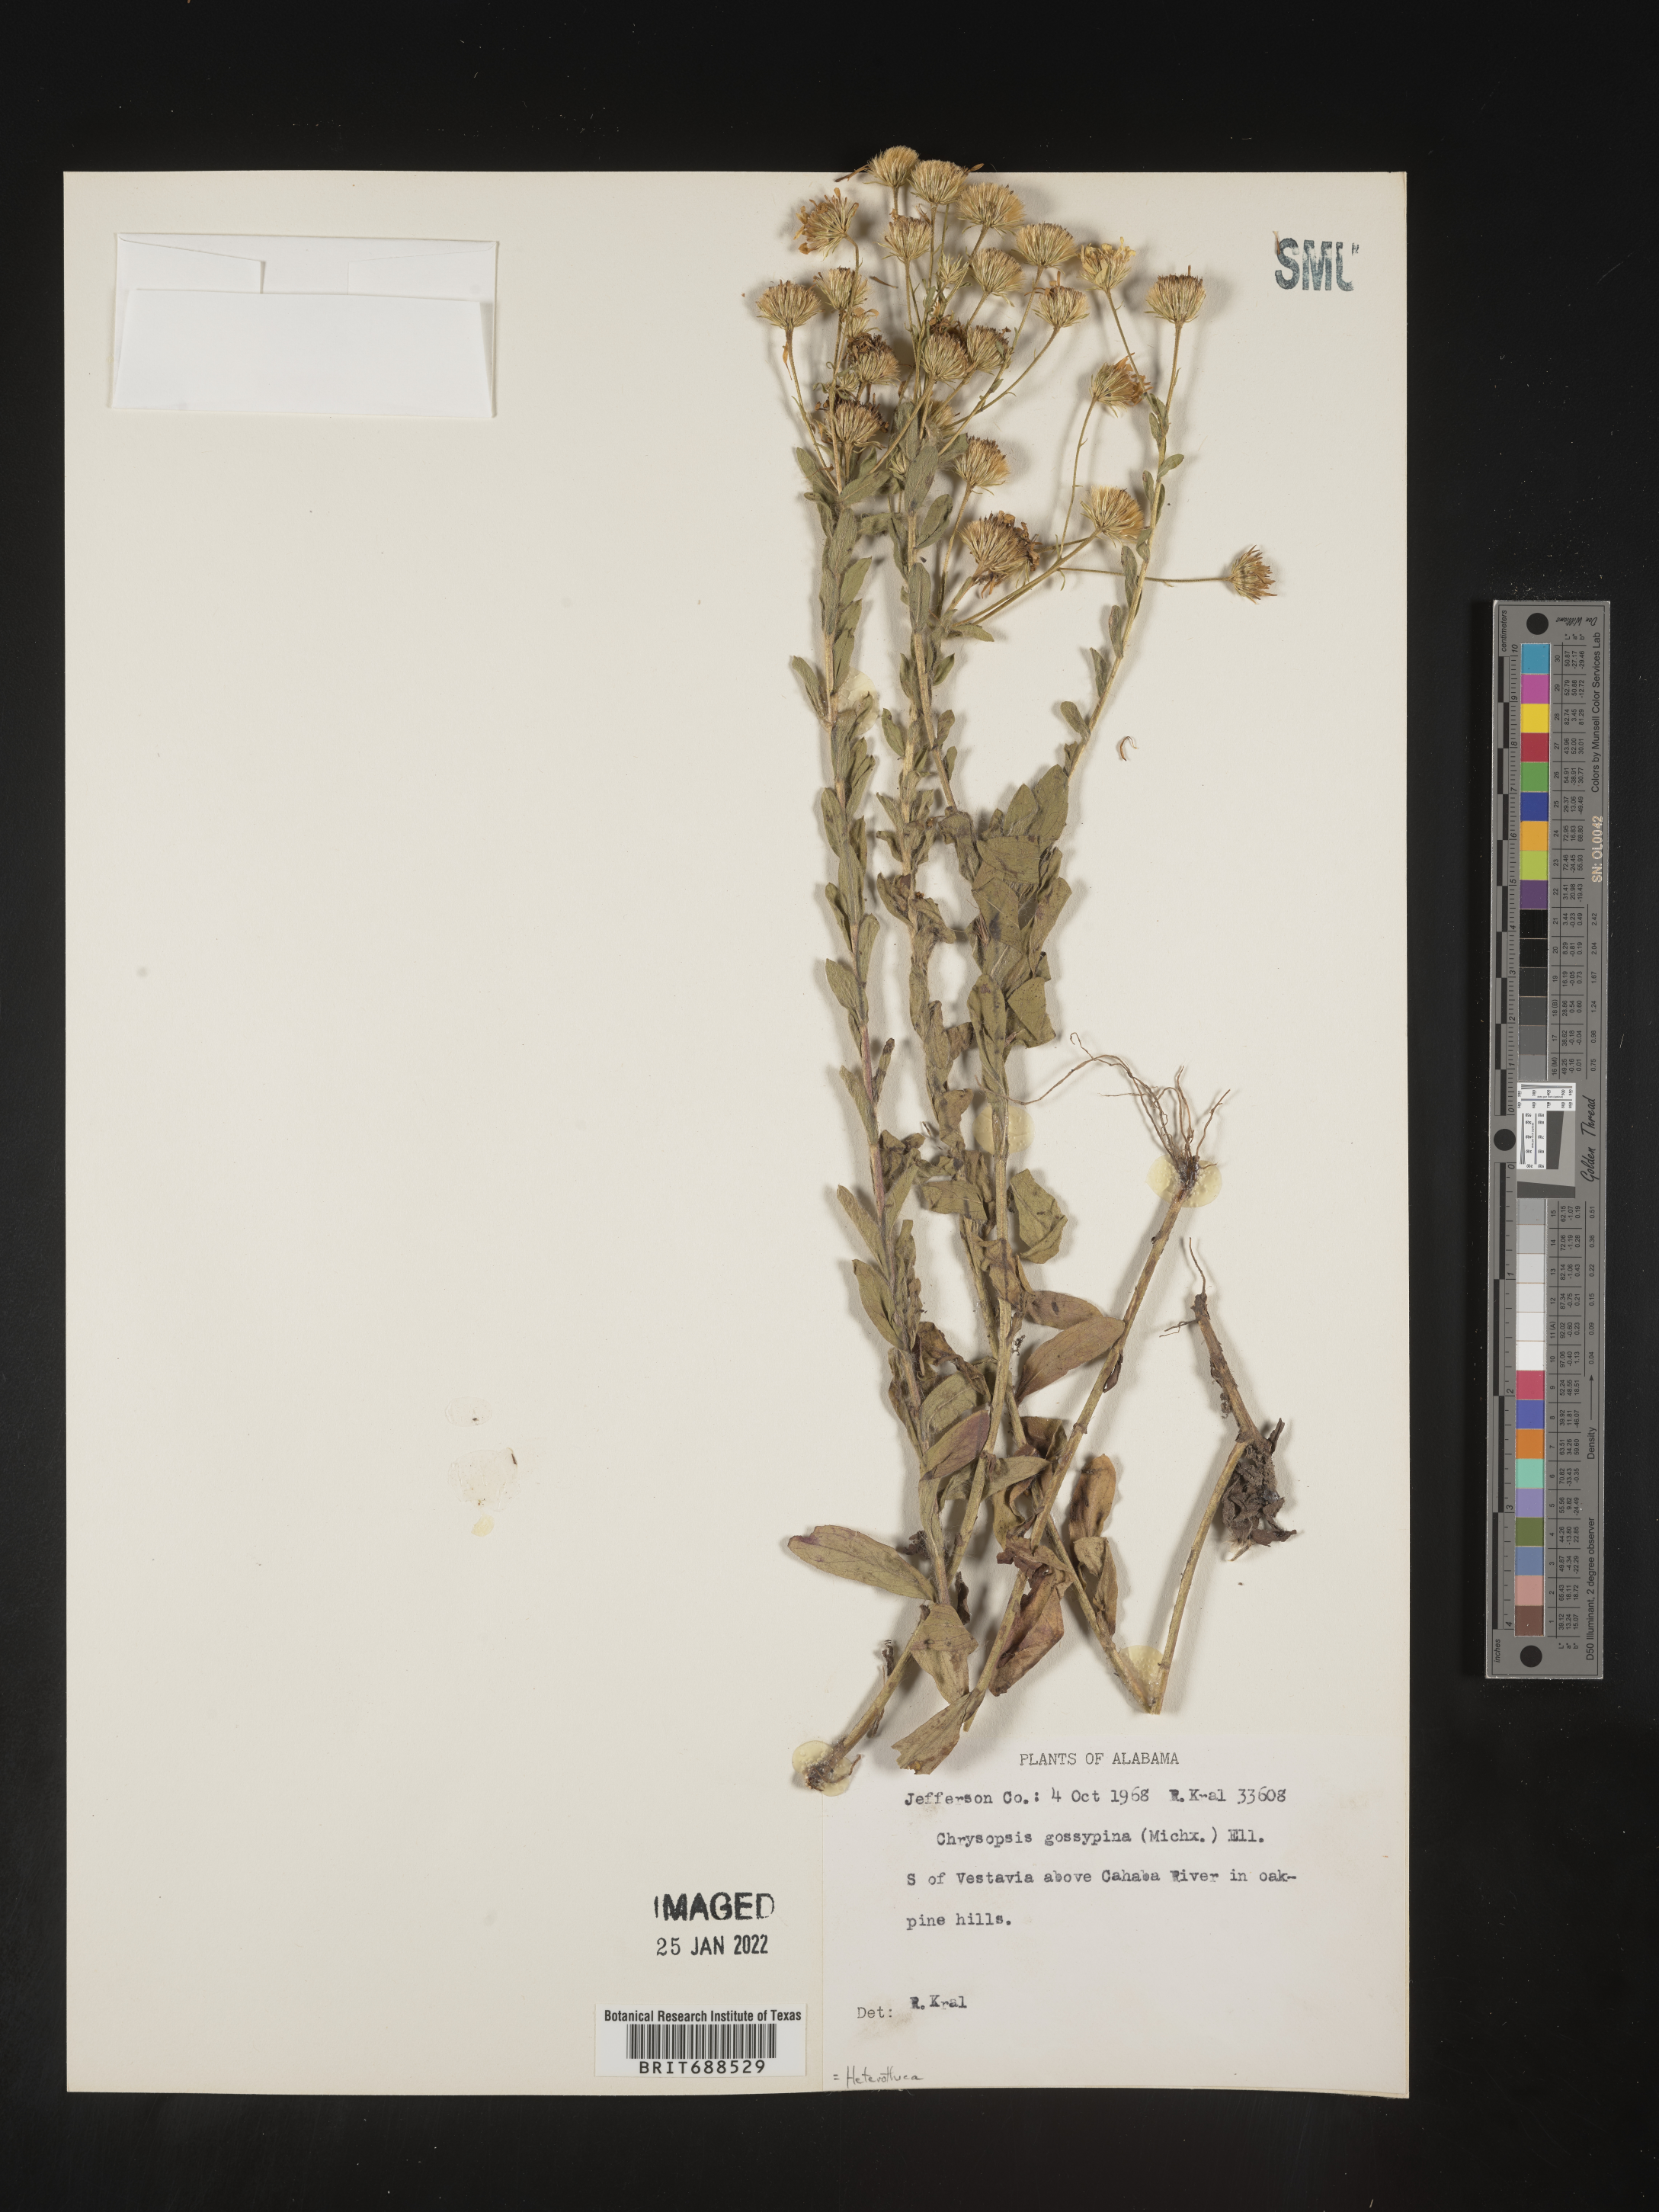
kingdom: Plantae
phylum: Tracheophyta
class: Magnoliopsida
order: Asterales
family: Asteraceae
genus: Chrysopsis
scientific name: Chrysopsis gossypina
